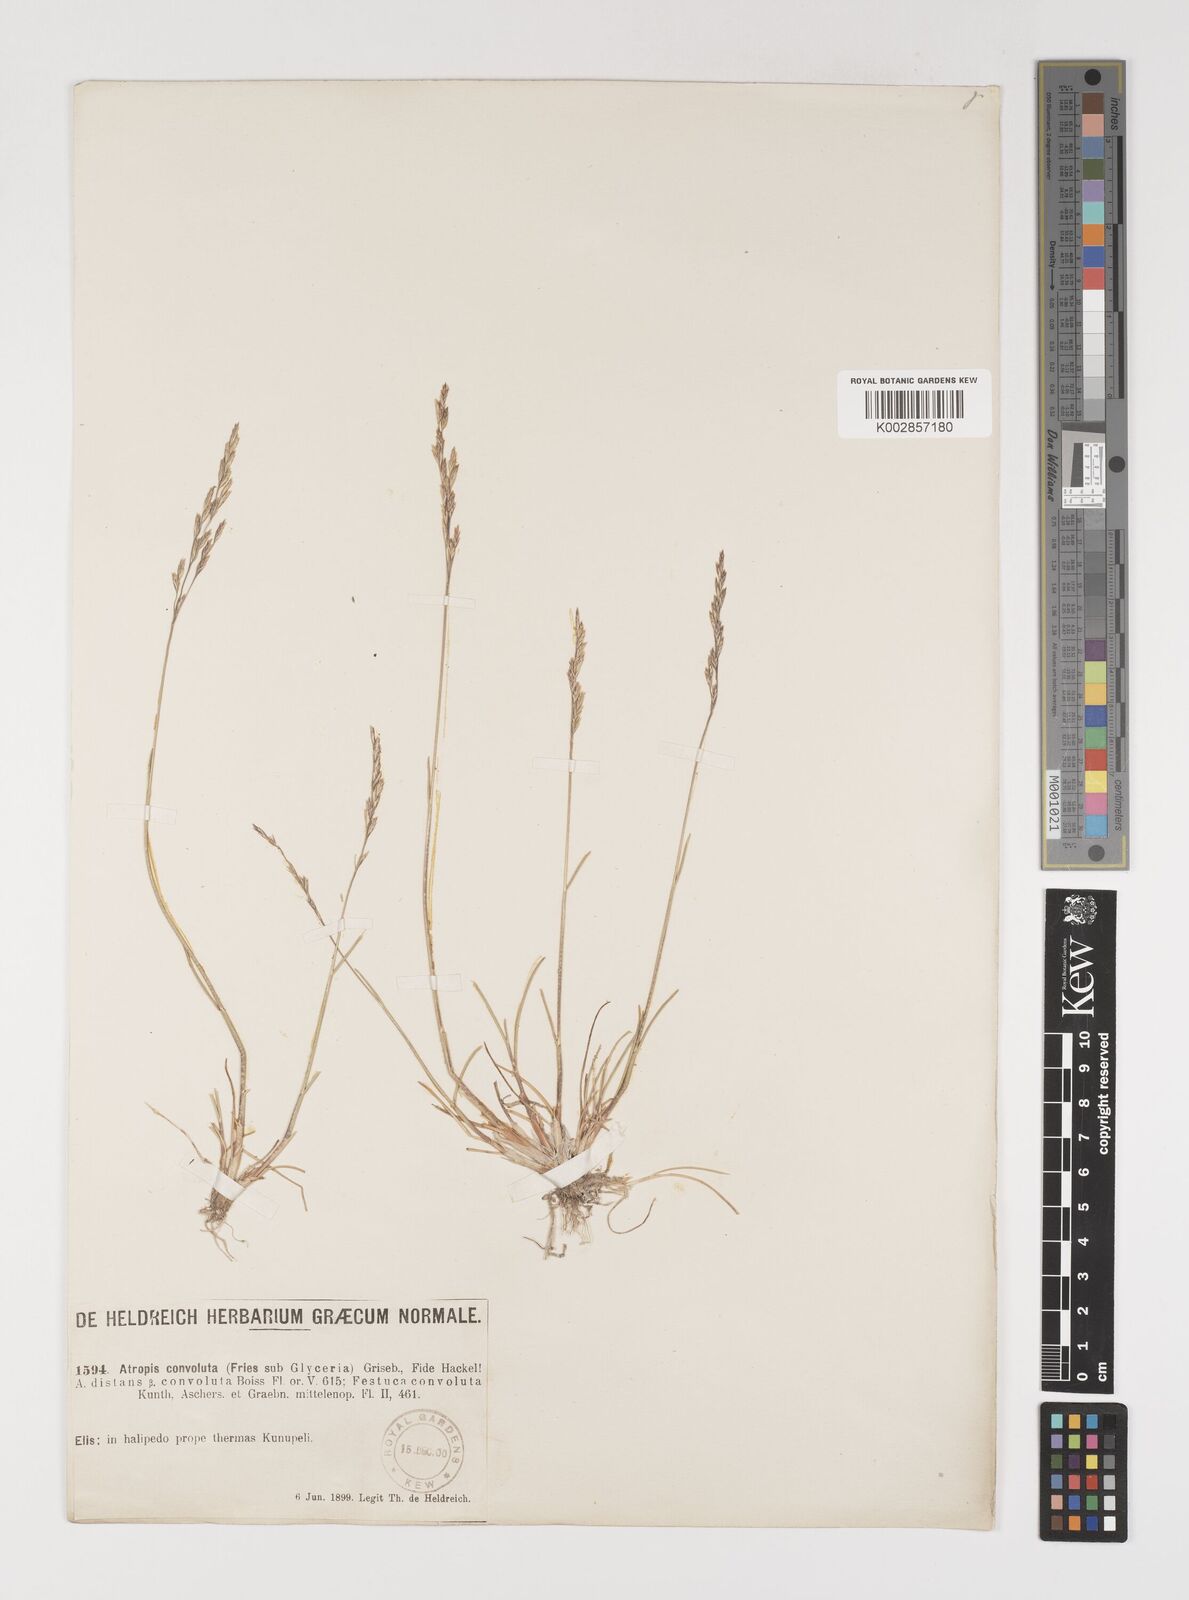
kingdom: Plantae
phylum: Tracheophyta
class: Liliopsida
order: Poales
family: Poaceae
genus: Puccinellia
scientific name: Puccinellia convoluta
